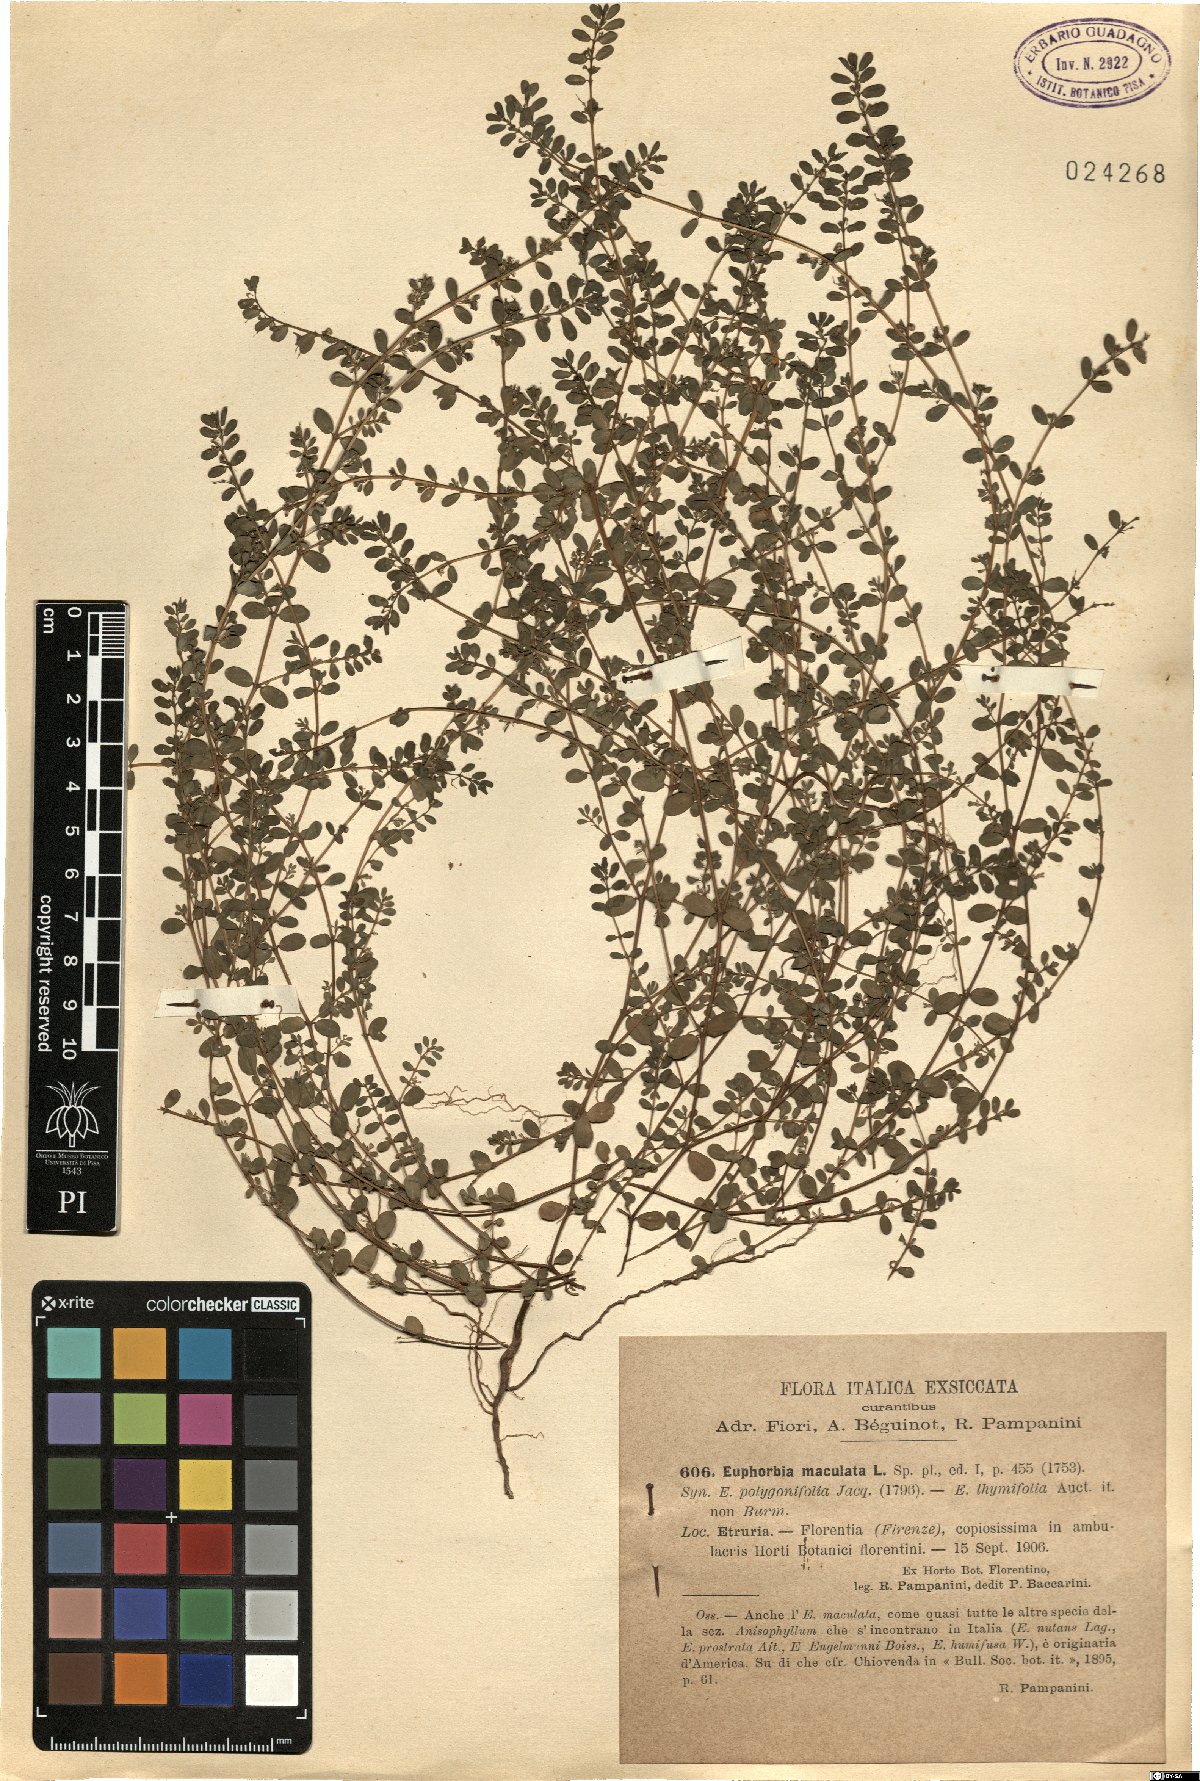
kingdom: Plantae
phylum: Tracheophyta
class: Magnoliopsida
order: Malpighiales
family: Euphorbiaceae
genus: Euphorbia
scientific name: Euphorbia maculata
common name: Spotted spurge
